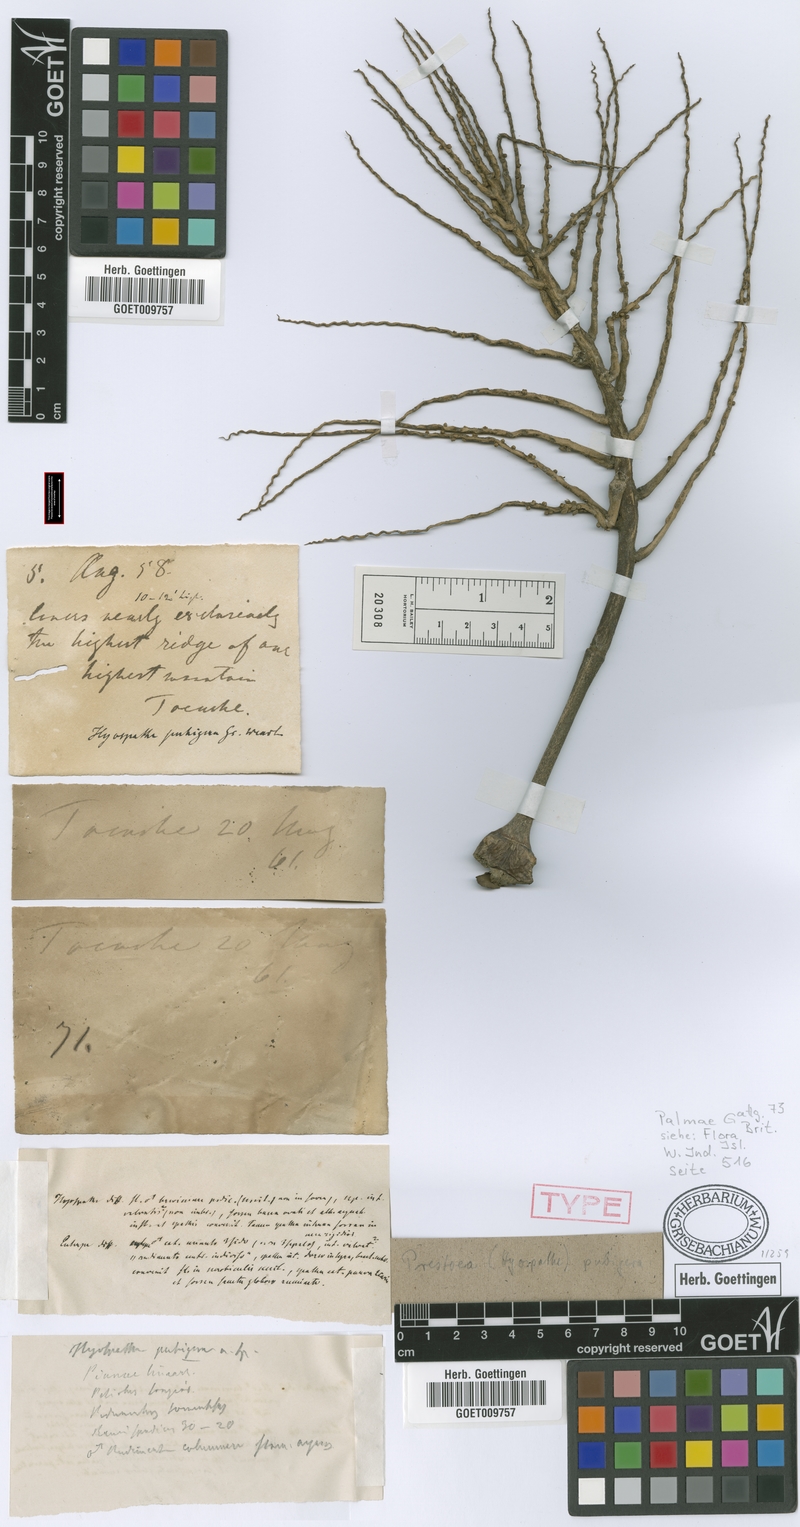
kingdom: Plantae
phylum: Tracheophyta
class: Liliopsida
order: Arecales
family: Arecaceae
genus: Prestoea
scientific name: Prestoea pubigera
